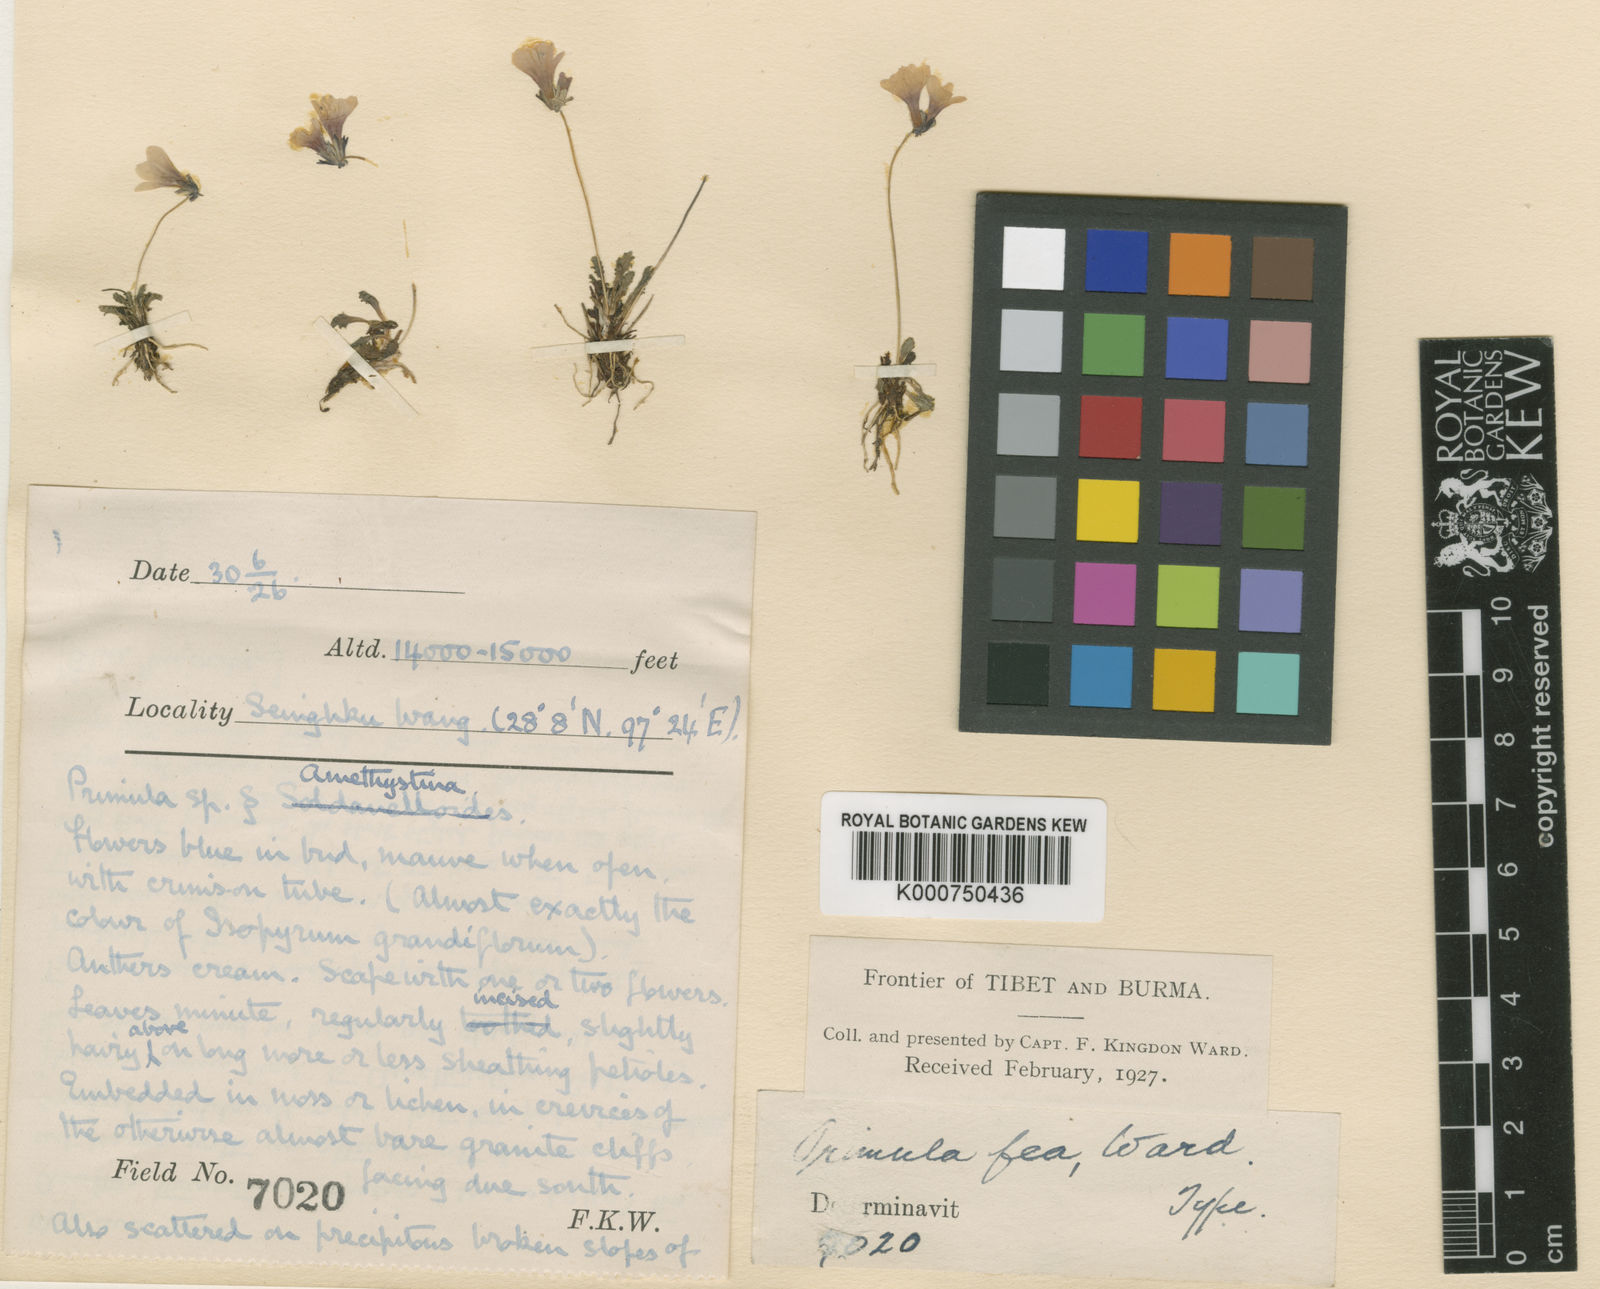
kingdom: Plantae
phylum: Tracheophyta
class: Magnoliopsida
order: Ericales
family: Primulaceae
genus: Primula
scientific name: Primula fea
